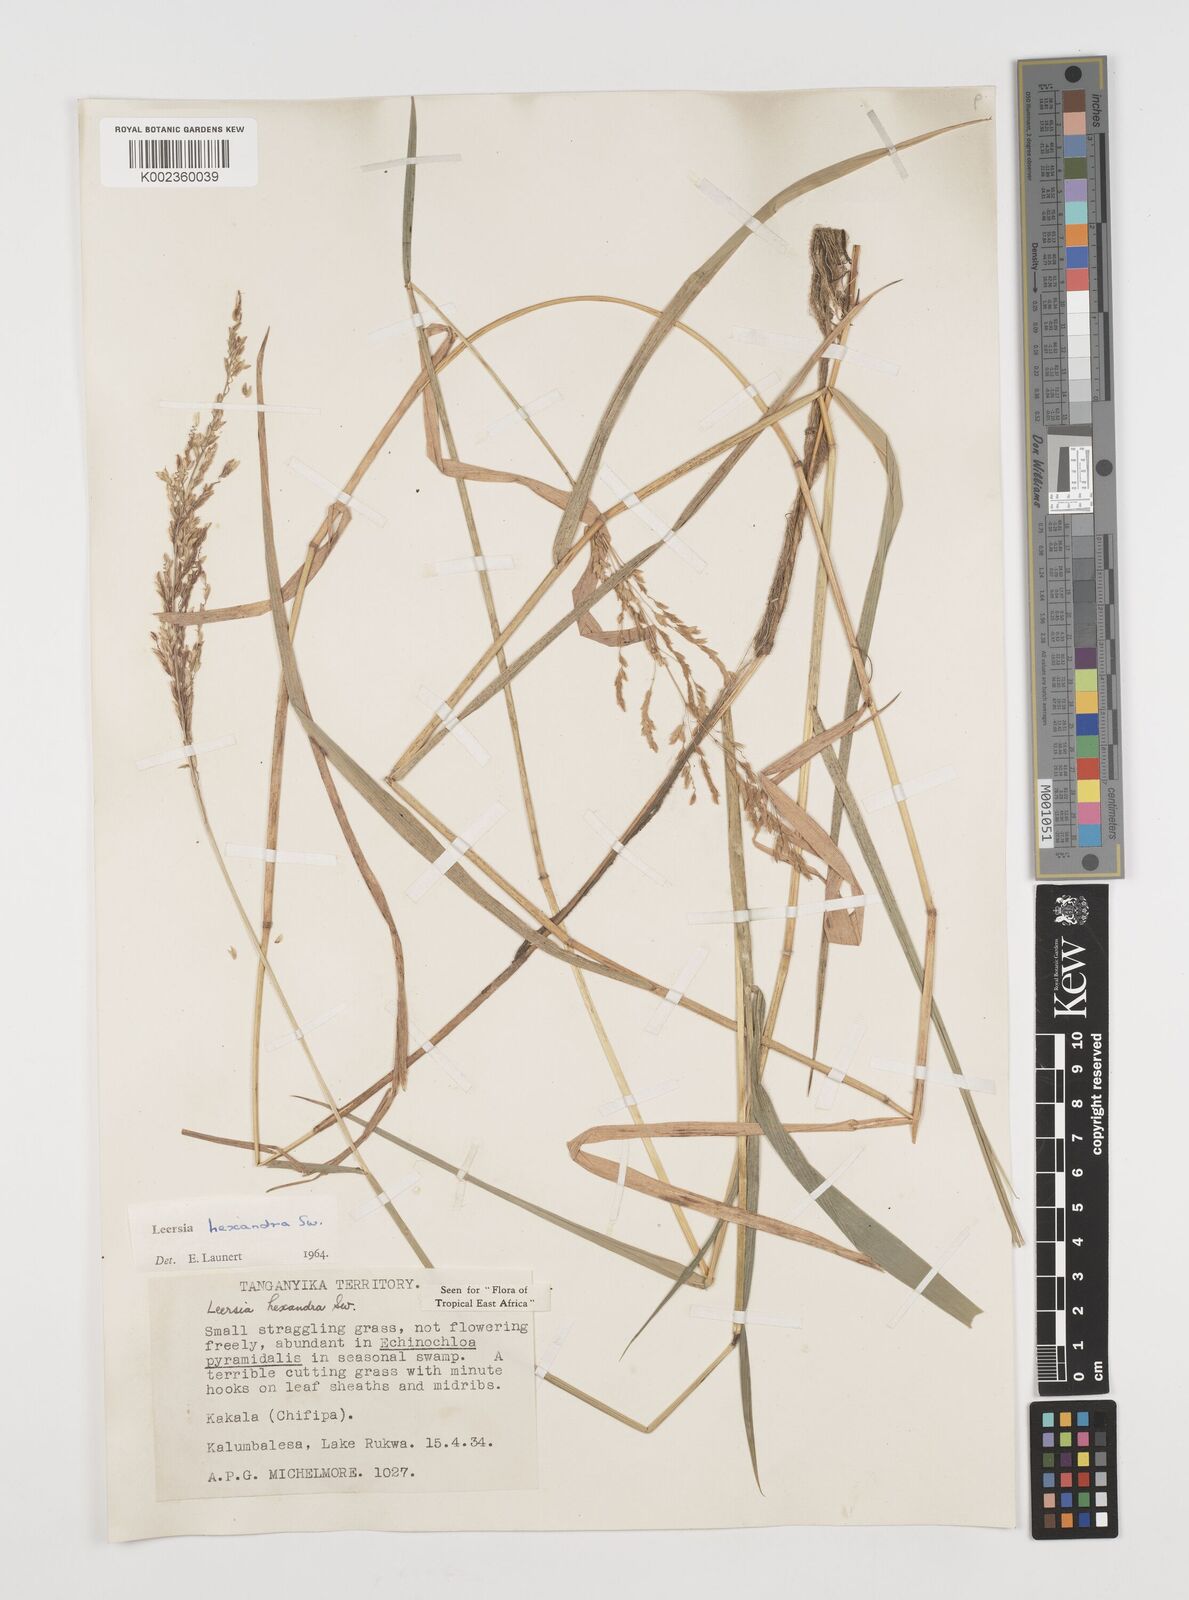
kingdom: Plantae
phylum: Tracheophyta
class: Liliopsida
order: Poales
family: Poaceae
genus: Leersia
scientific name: Leersia hexandra
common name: Southern cut grass
